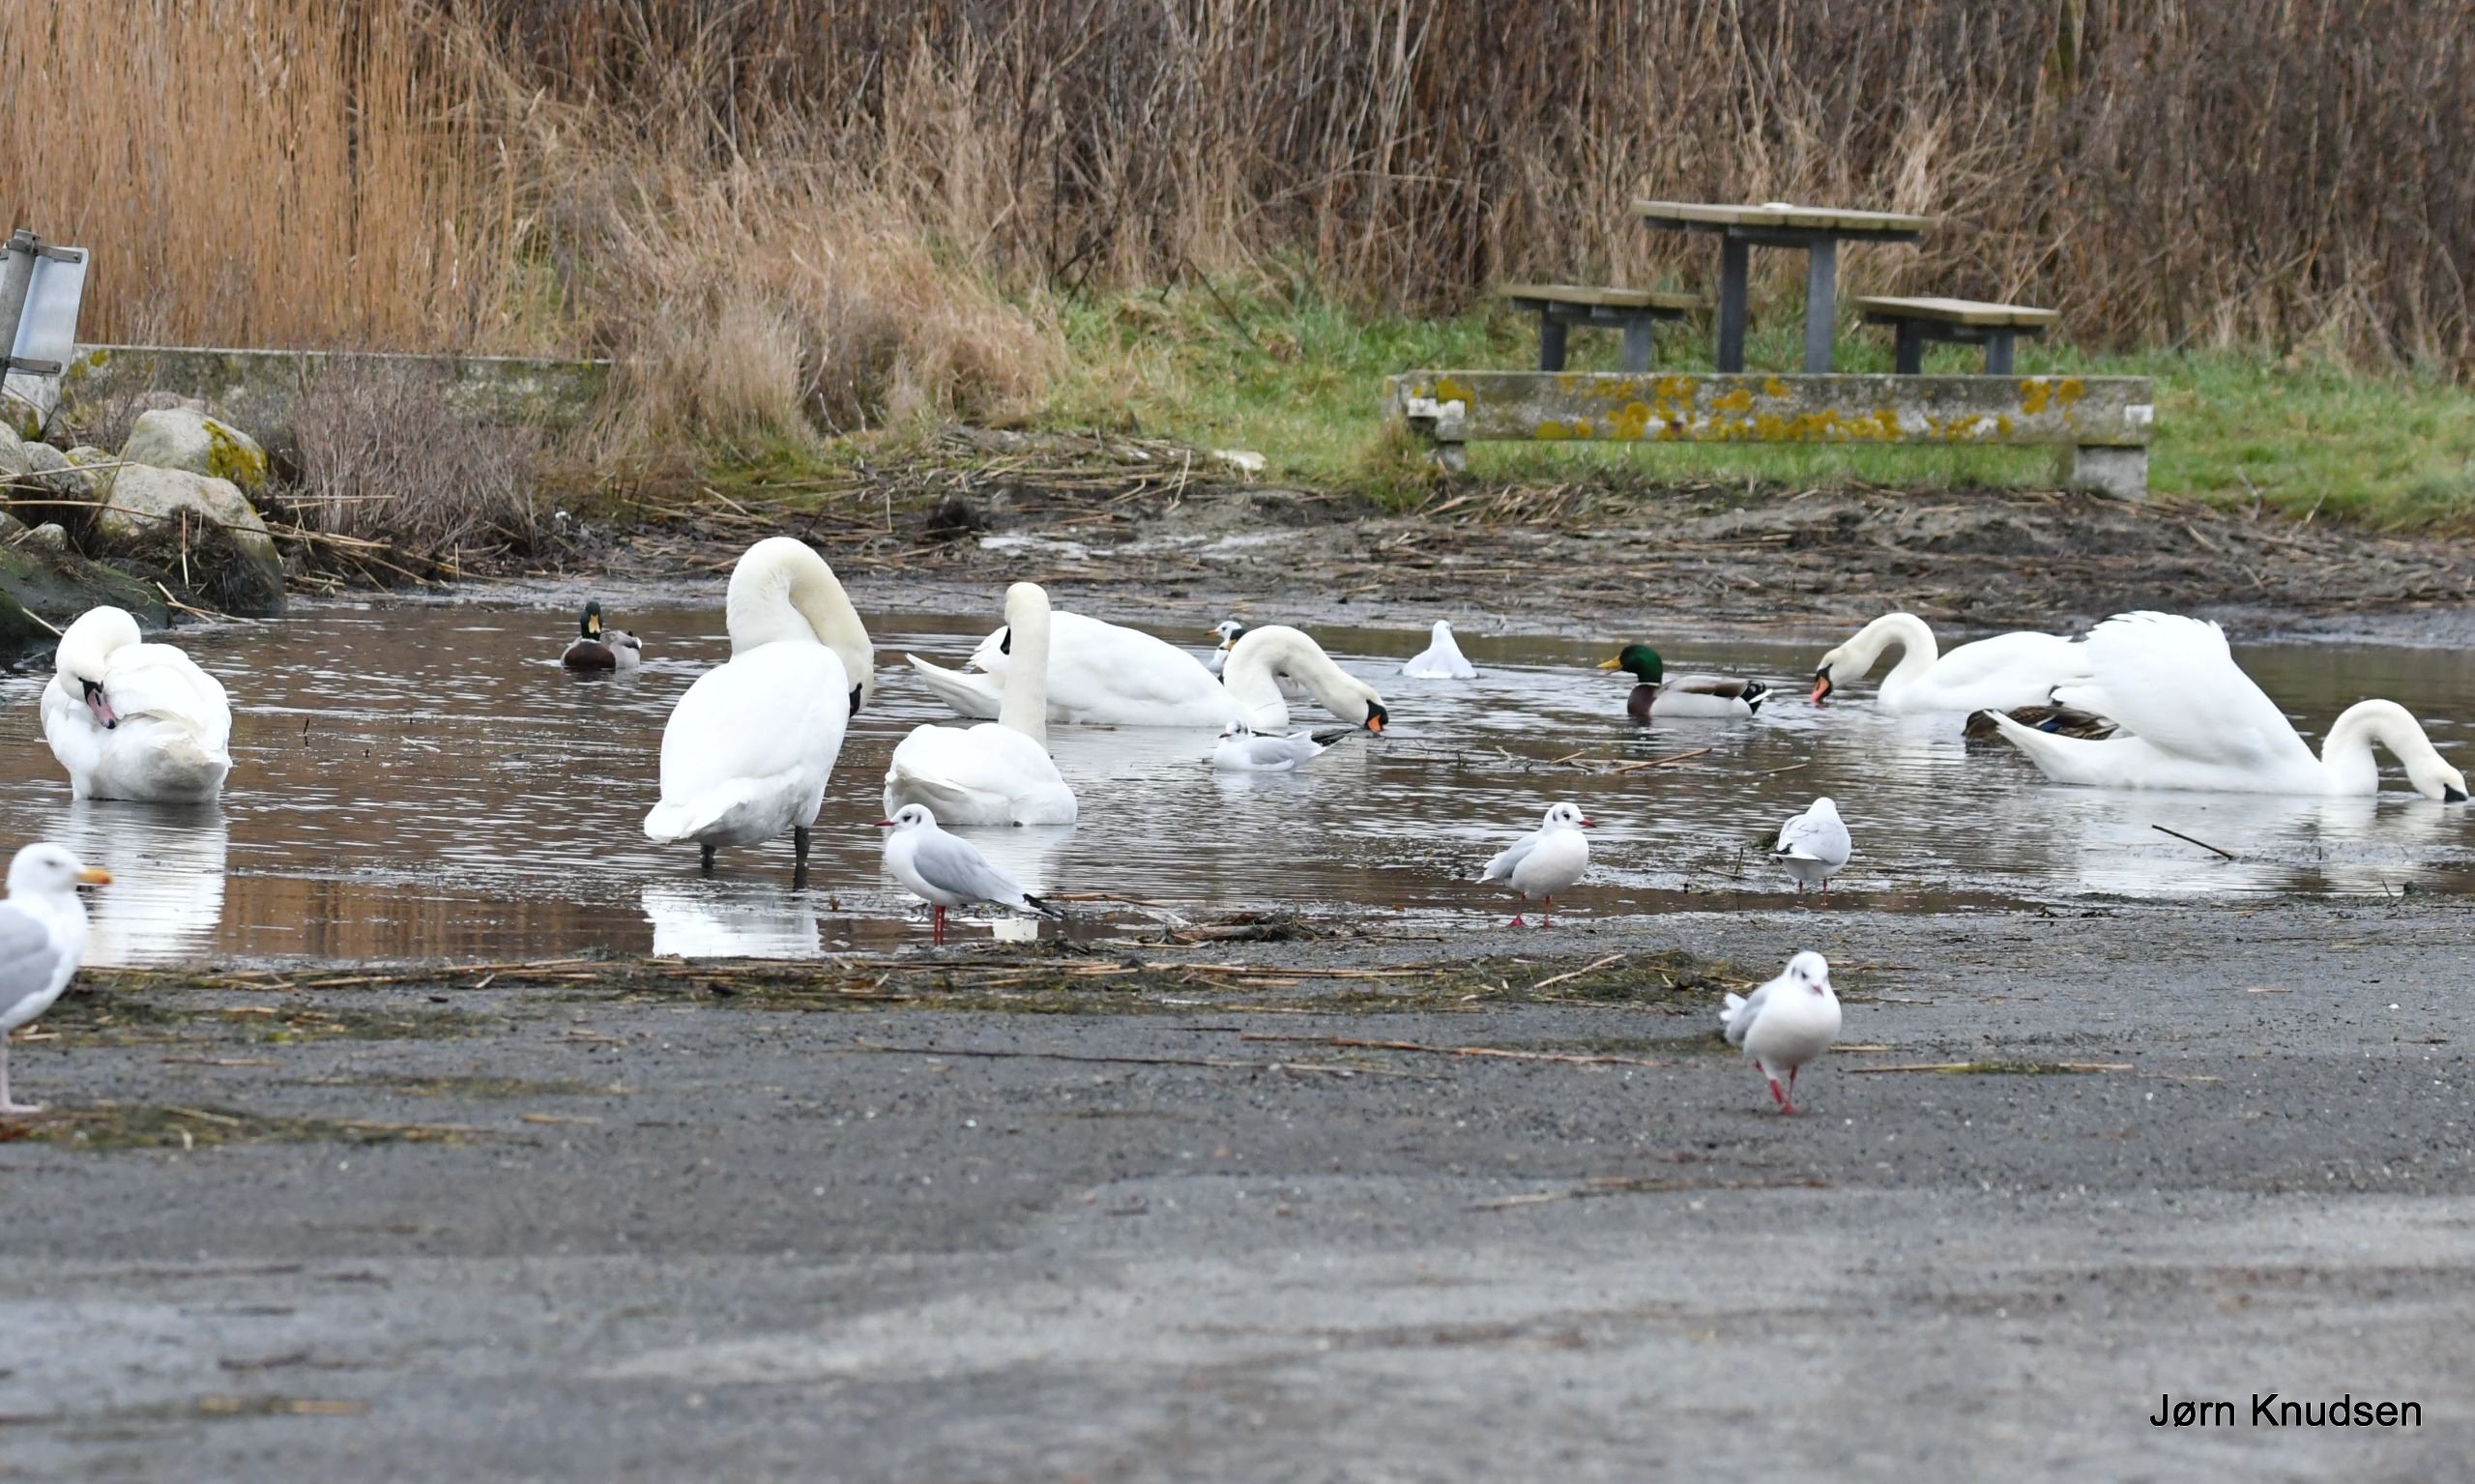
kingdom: Animalia
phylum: Chordata
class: Aves
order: Anseriformes
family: Anatidae
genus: Cygnus
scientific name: Cygnus olor
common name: Knopsvane
